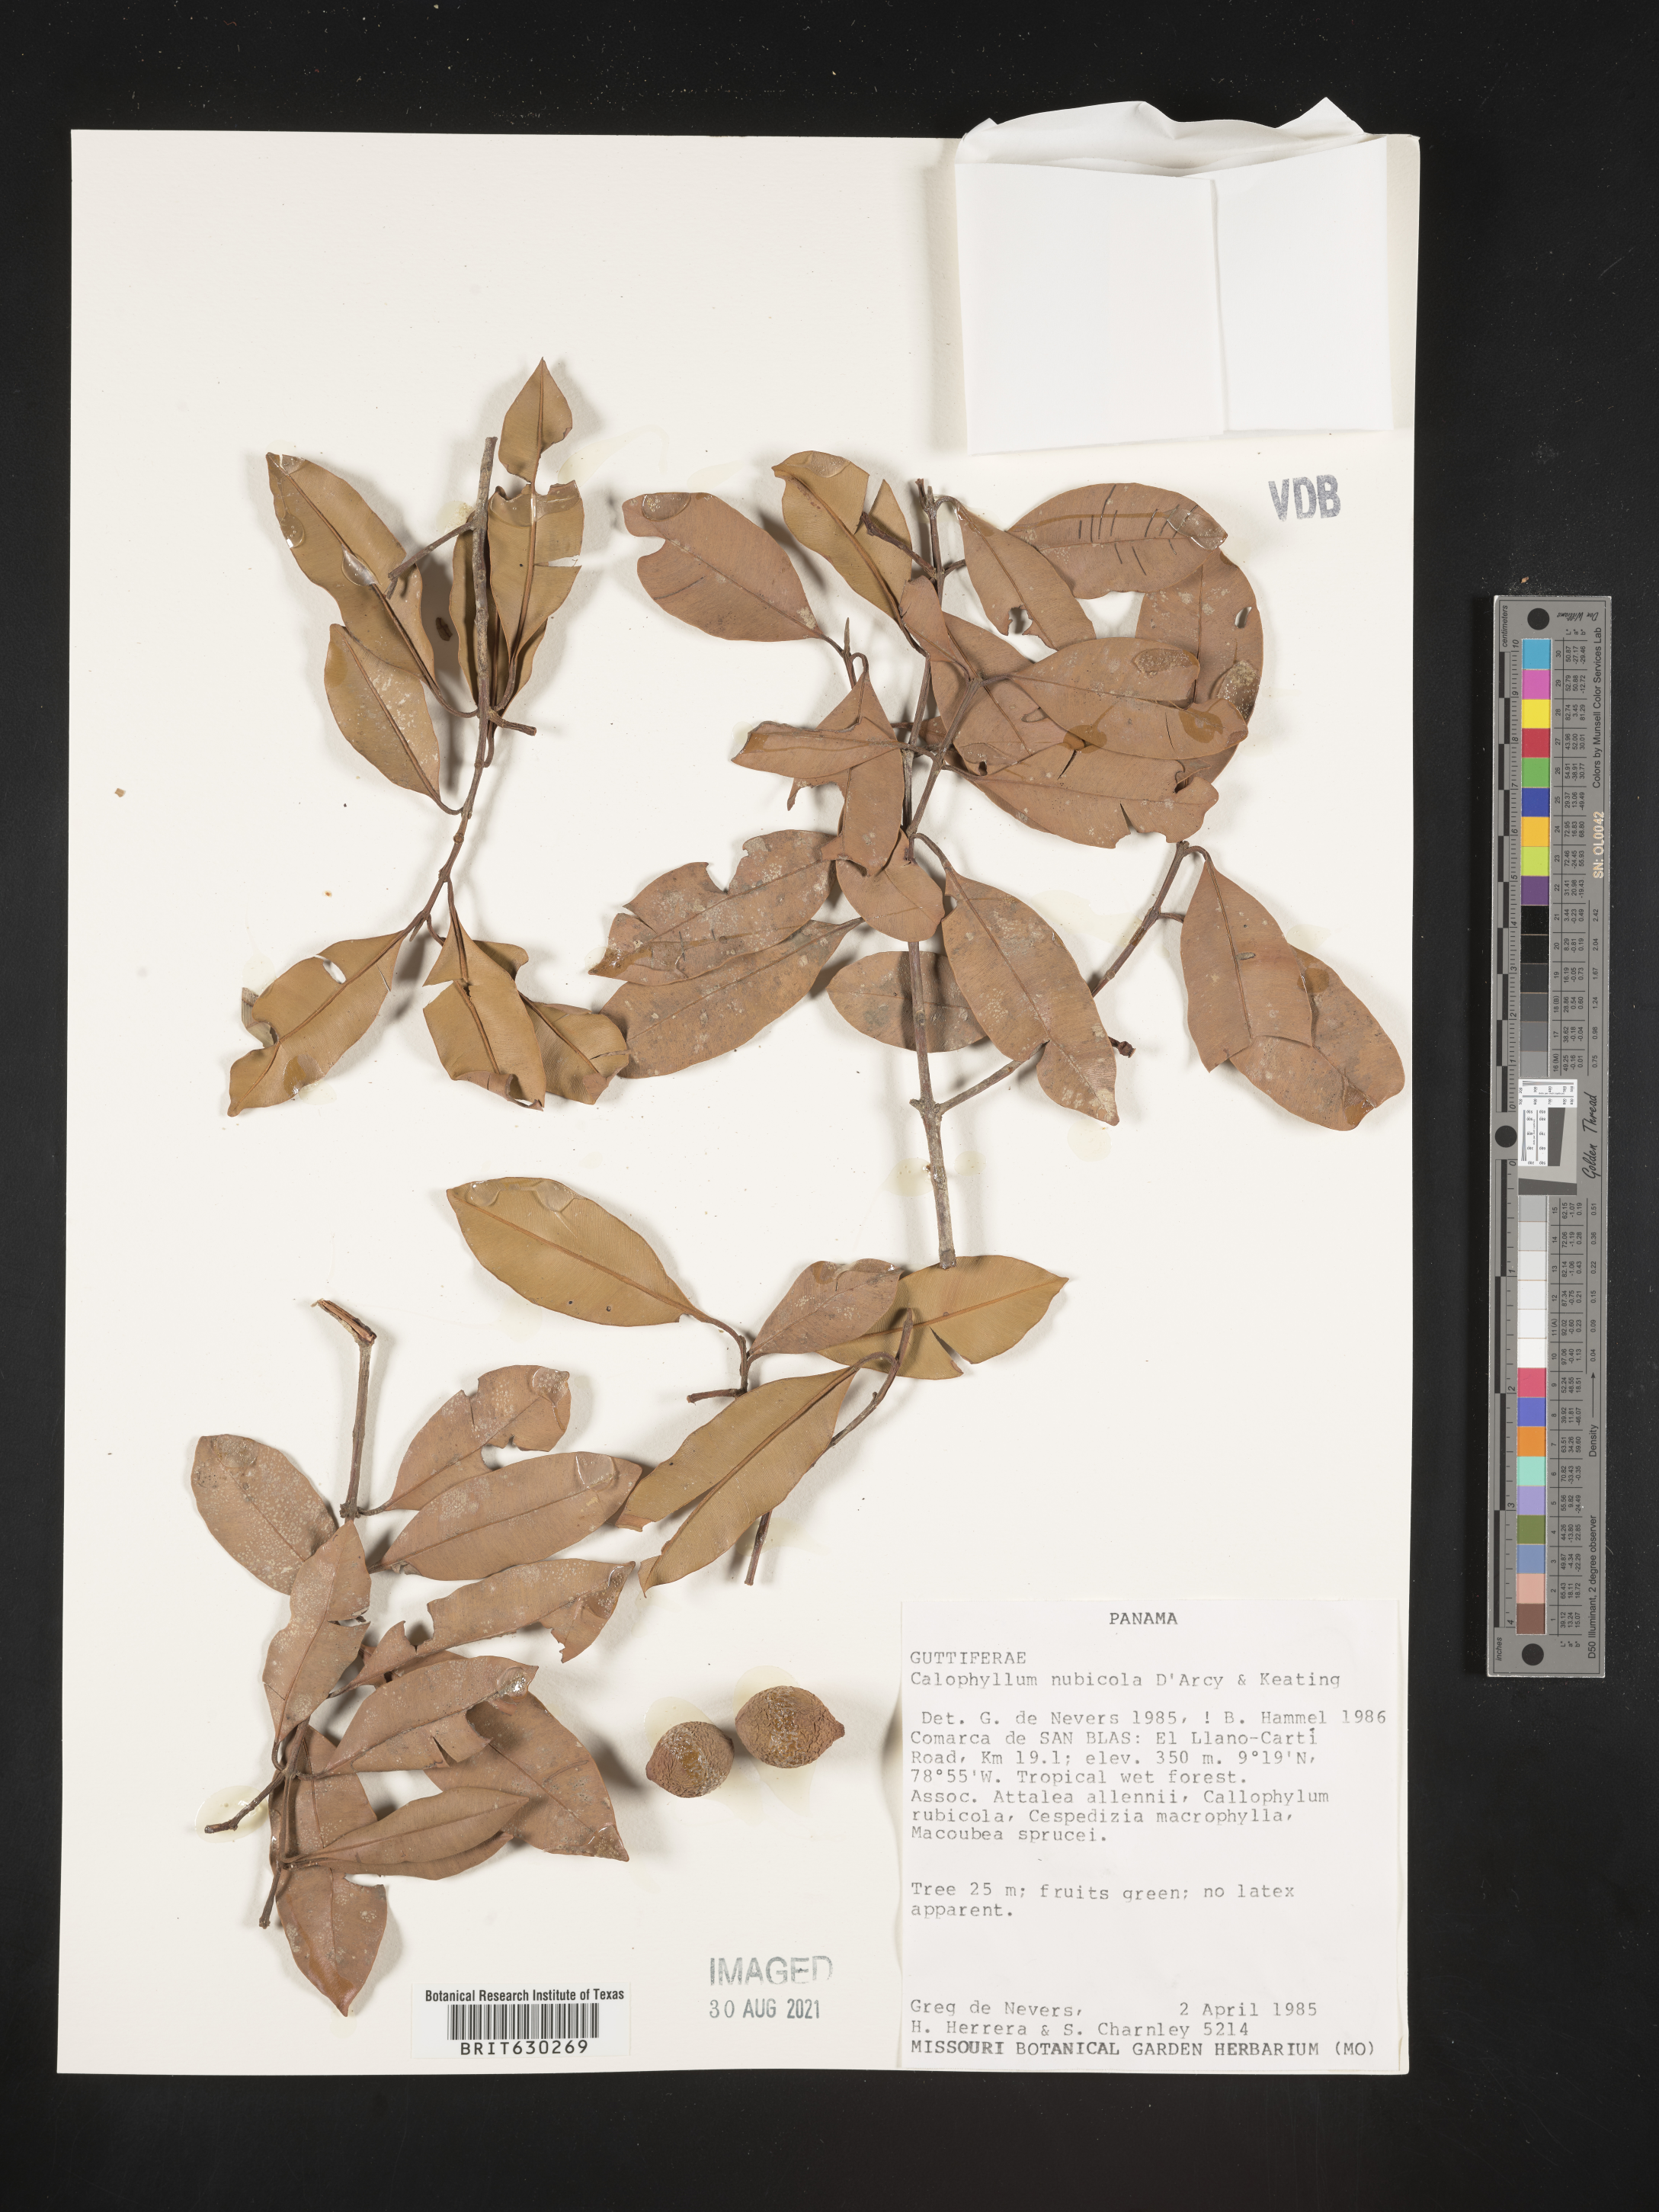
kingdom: Plantae
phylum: Tracheophyta
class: Magnoliopsida
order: Malpighiales
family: Calophyllaceae
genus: Calophyllum
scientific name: Calophyllum nubicola
